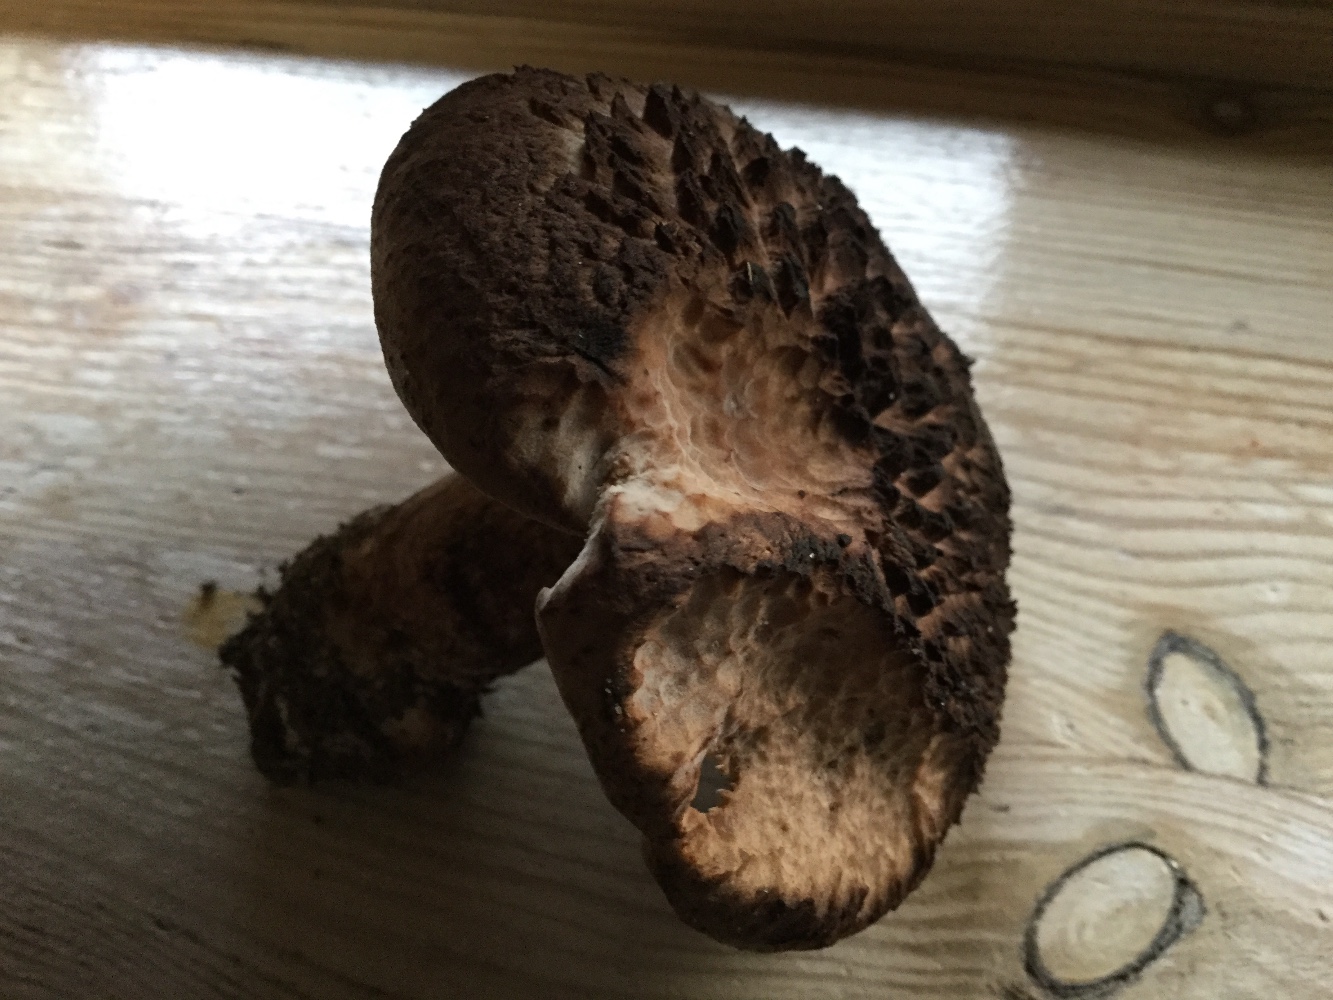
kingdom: Fungi
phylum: Basidiomycota
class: Agaricomycetes
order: Thelephorales
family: Bankeraceae
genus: Sarcodon
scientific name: Sarcodon squamosus
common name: småskællet kødpigsvamp
